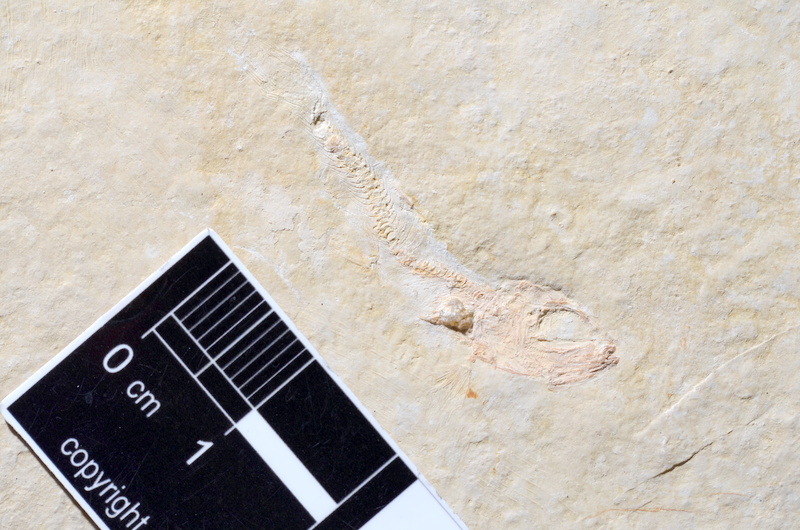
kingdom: Animalia
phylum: Chordata
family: Ascalaboidae
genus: Tharsis
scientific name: Tharsis dubius
